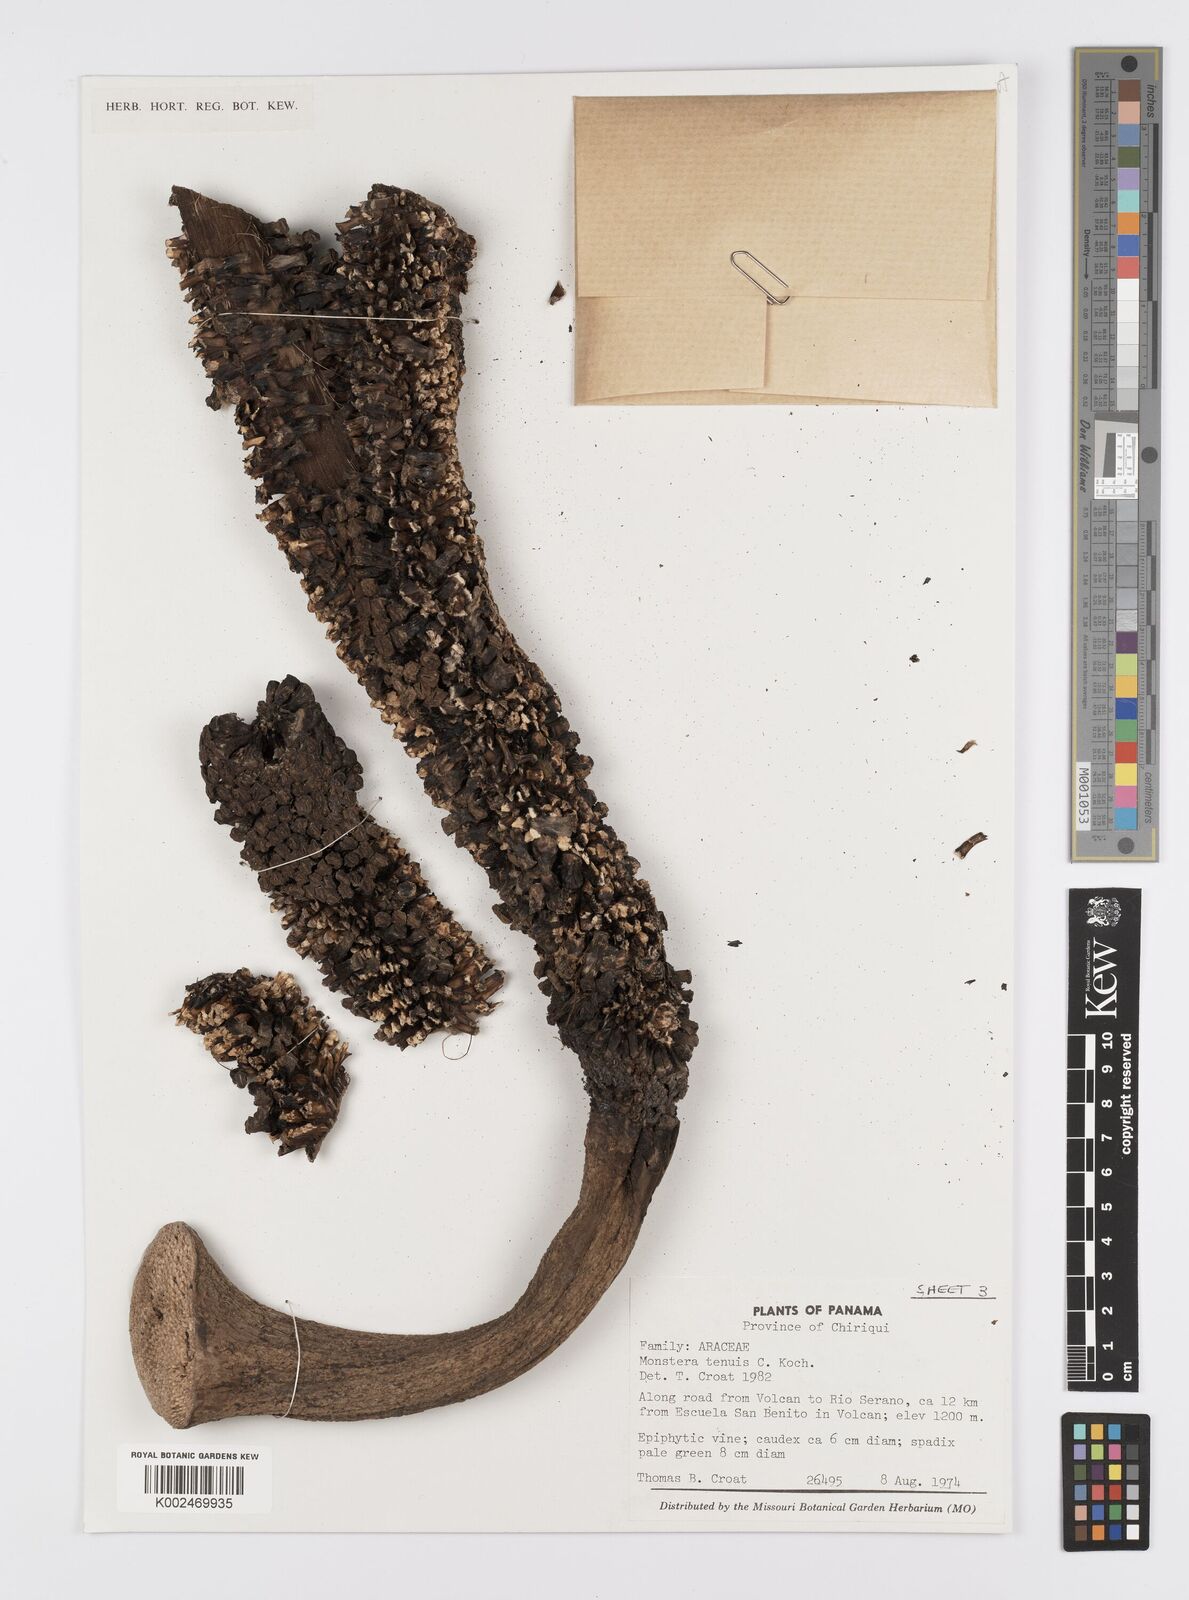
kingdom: Plantae
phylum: Tracheophyta
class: Liliopsida
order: Alismatales
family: Araceae
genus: Monstera
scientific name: Monstera tenuis
